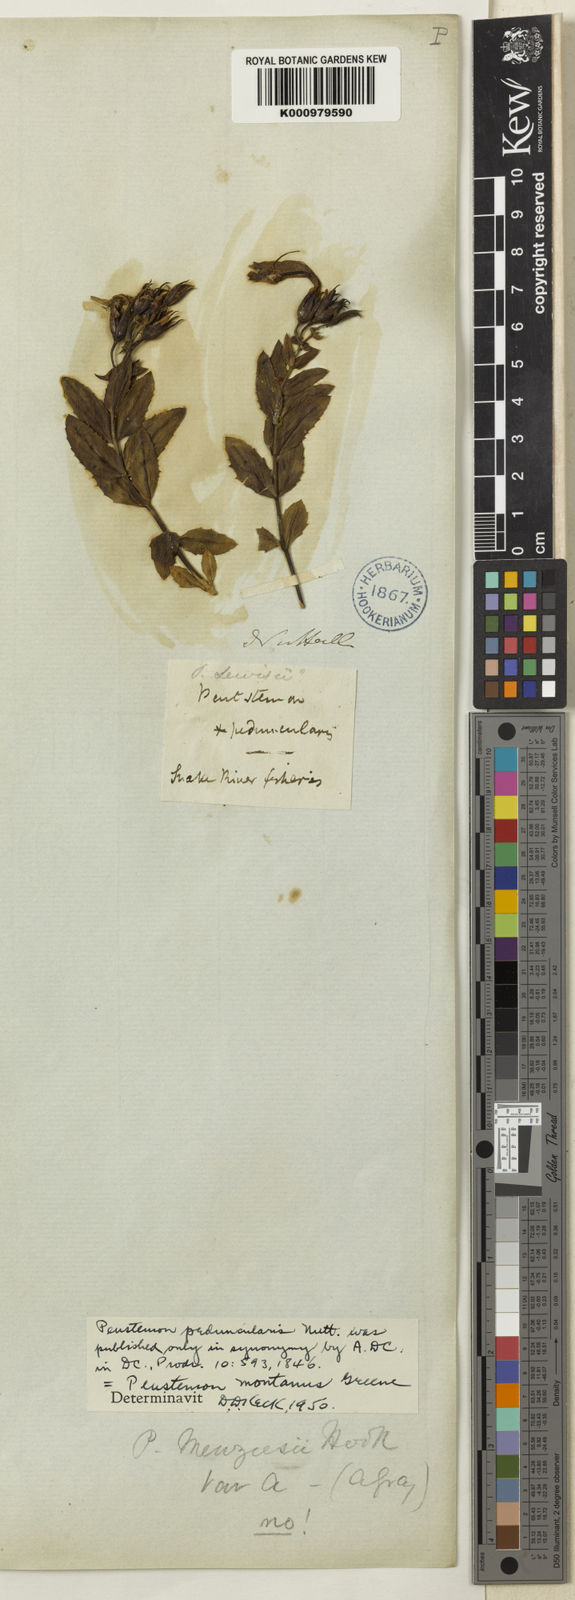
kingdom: Plantae
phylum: Tracheophyta
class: Magnoliopsida
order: Lamiales
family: Plantaginaceae
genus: Penstemon
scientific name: Penstemon montanus
